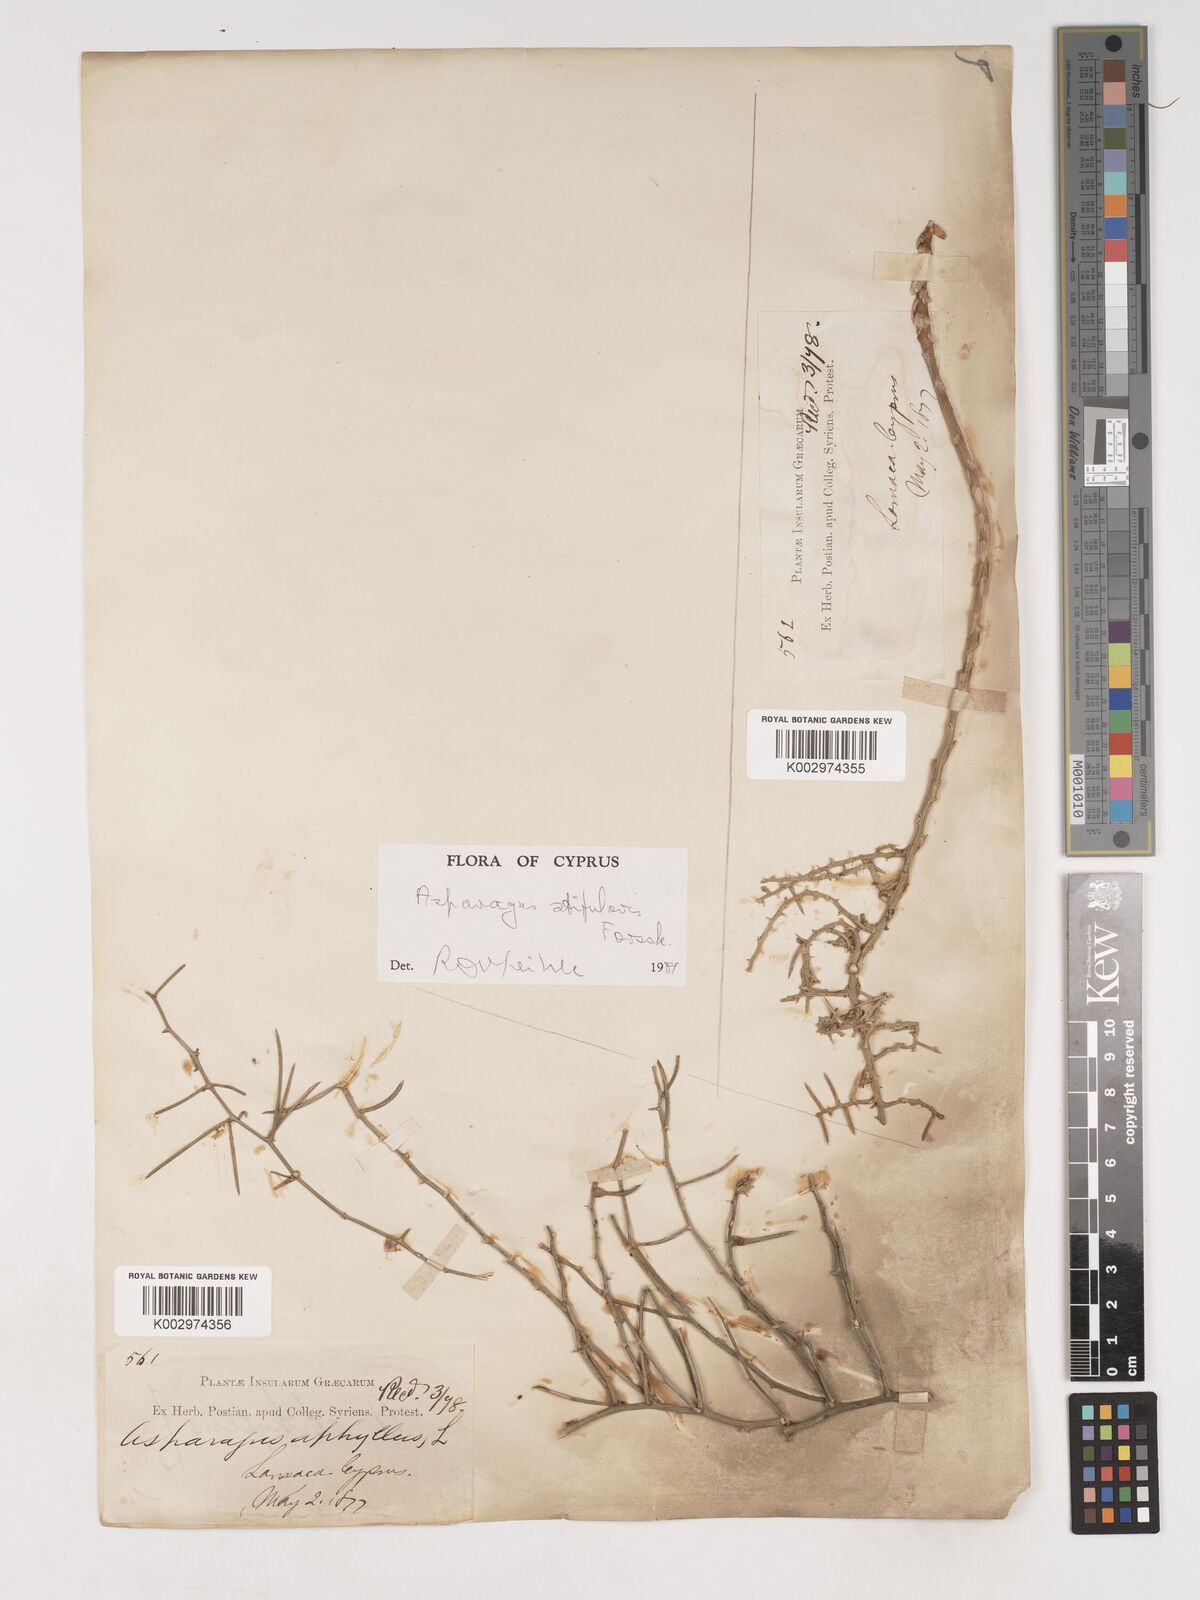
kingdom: Plantae
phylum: Tracheophyta
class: Liliopsida
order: Asparagales
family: Asparagaceae
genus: Asparagus
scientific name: Asparagus aphyllus
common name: Mediterranean asparagus
